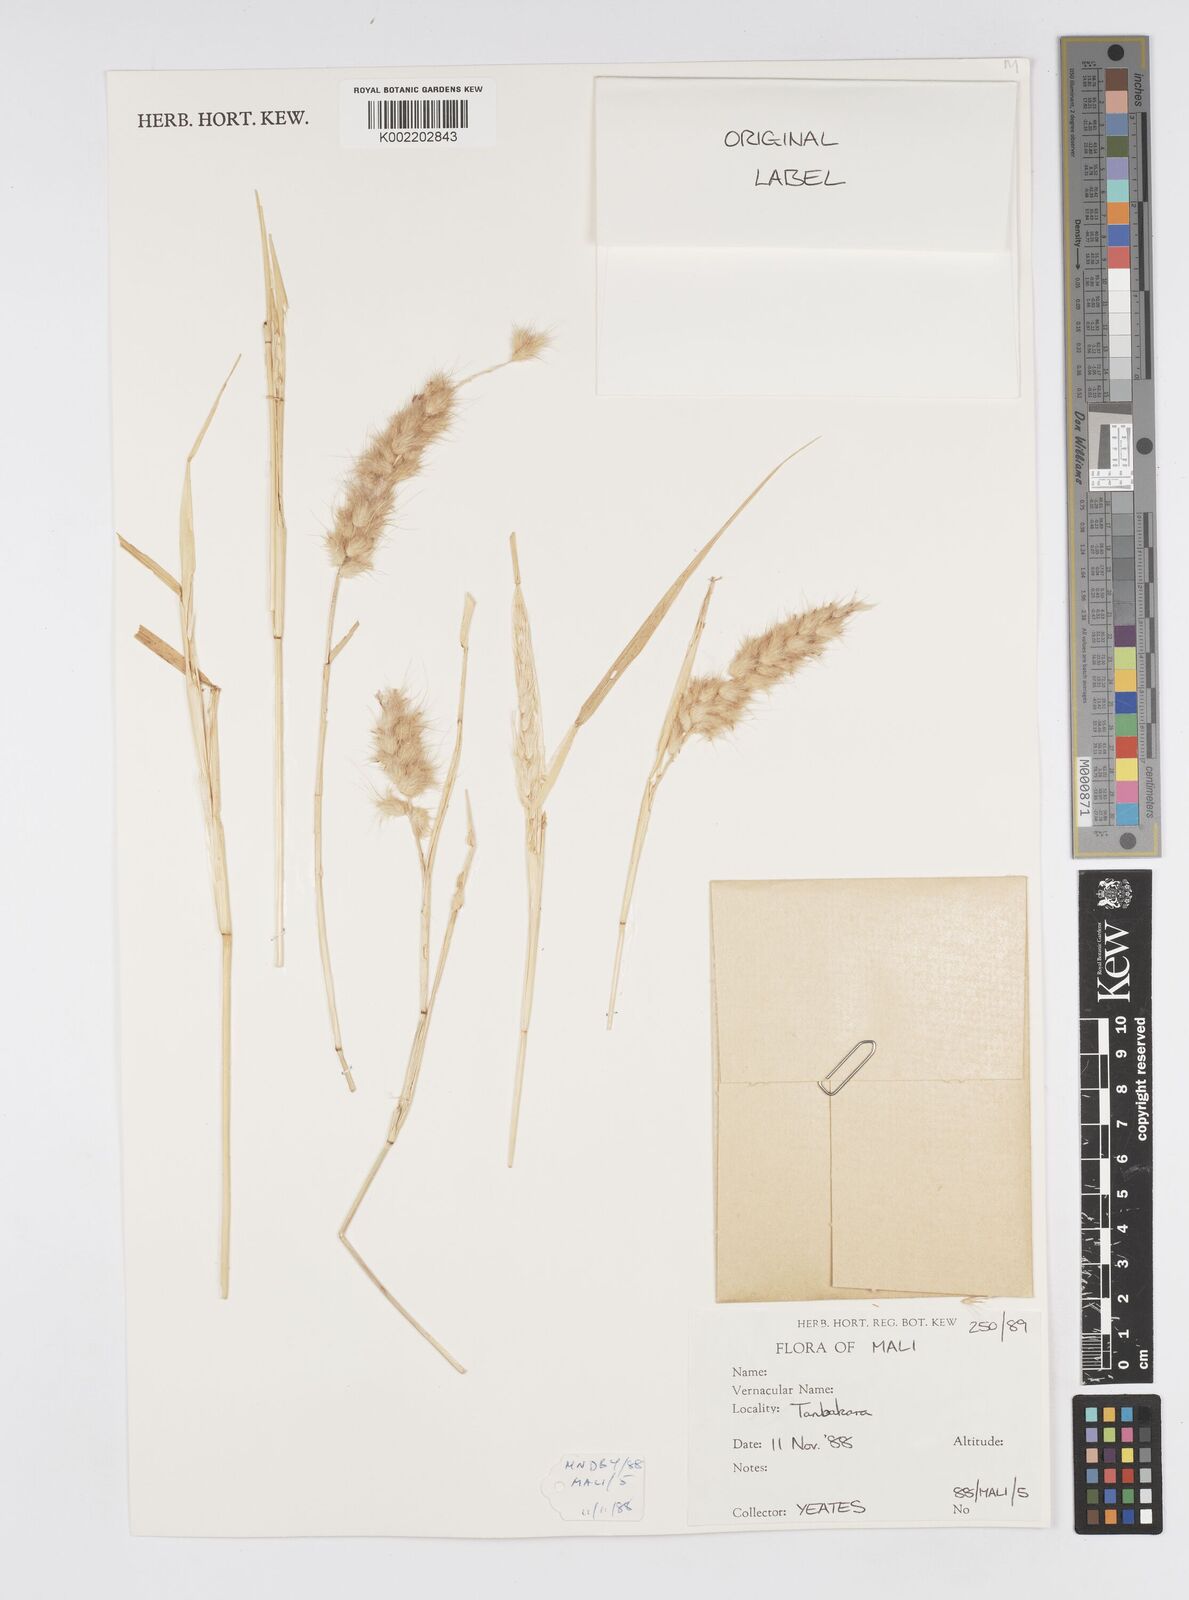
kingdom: Plantae
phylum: Tracheophyta
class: Liliopsida
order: Poales
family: Poaceae
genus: Cenchrus
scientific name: Cenchrus Pennisetum spec
